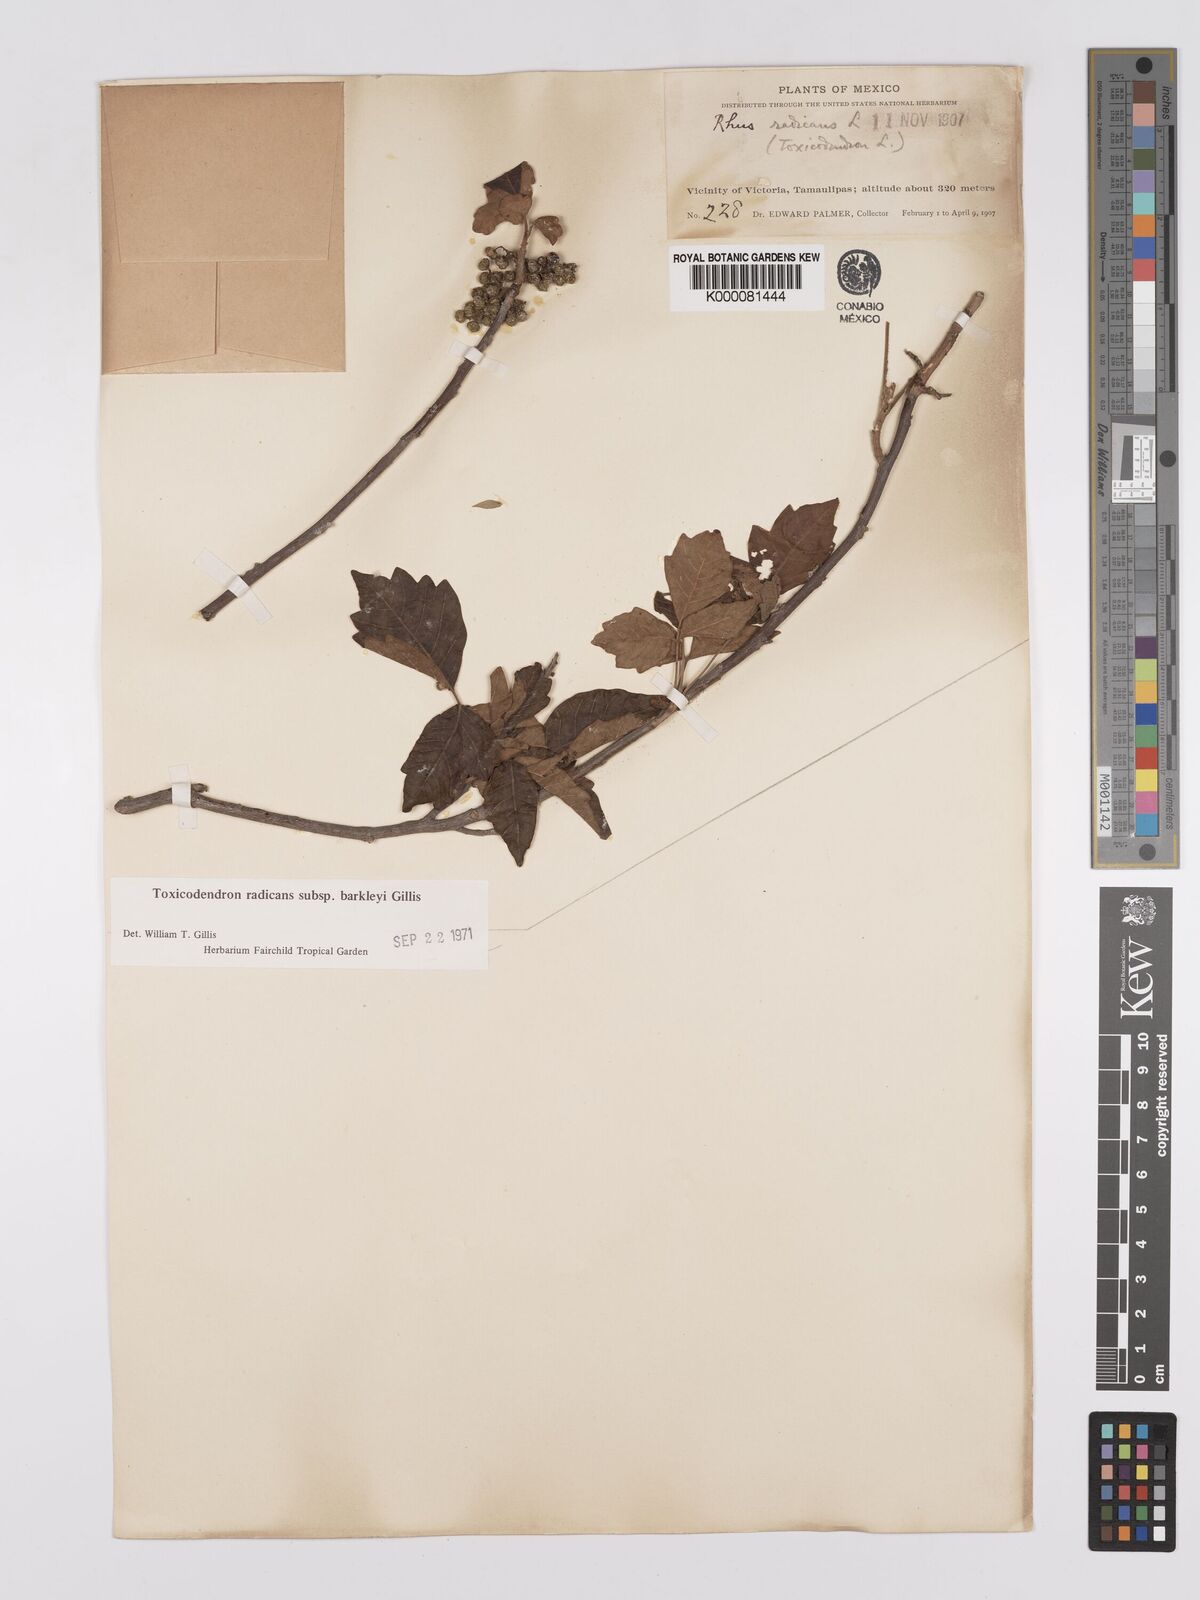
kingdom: Plantae
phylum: Tracheophyta
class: Magnoliopsida
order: Sapindales
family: Anacardiaceae
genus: Toxicodendron
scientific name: Toxicodendron radicans
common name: Poison ivy
